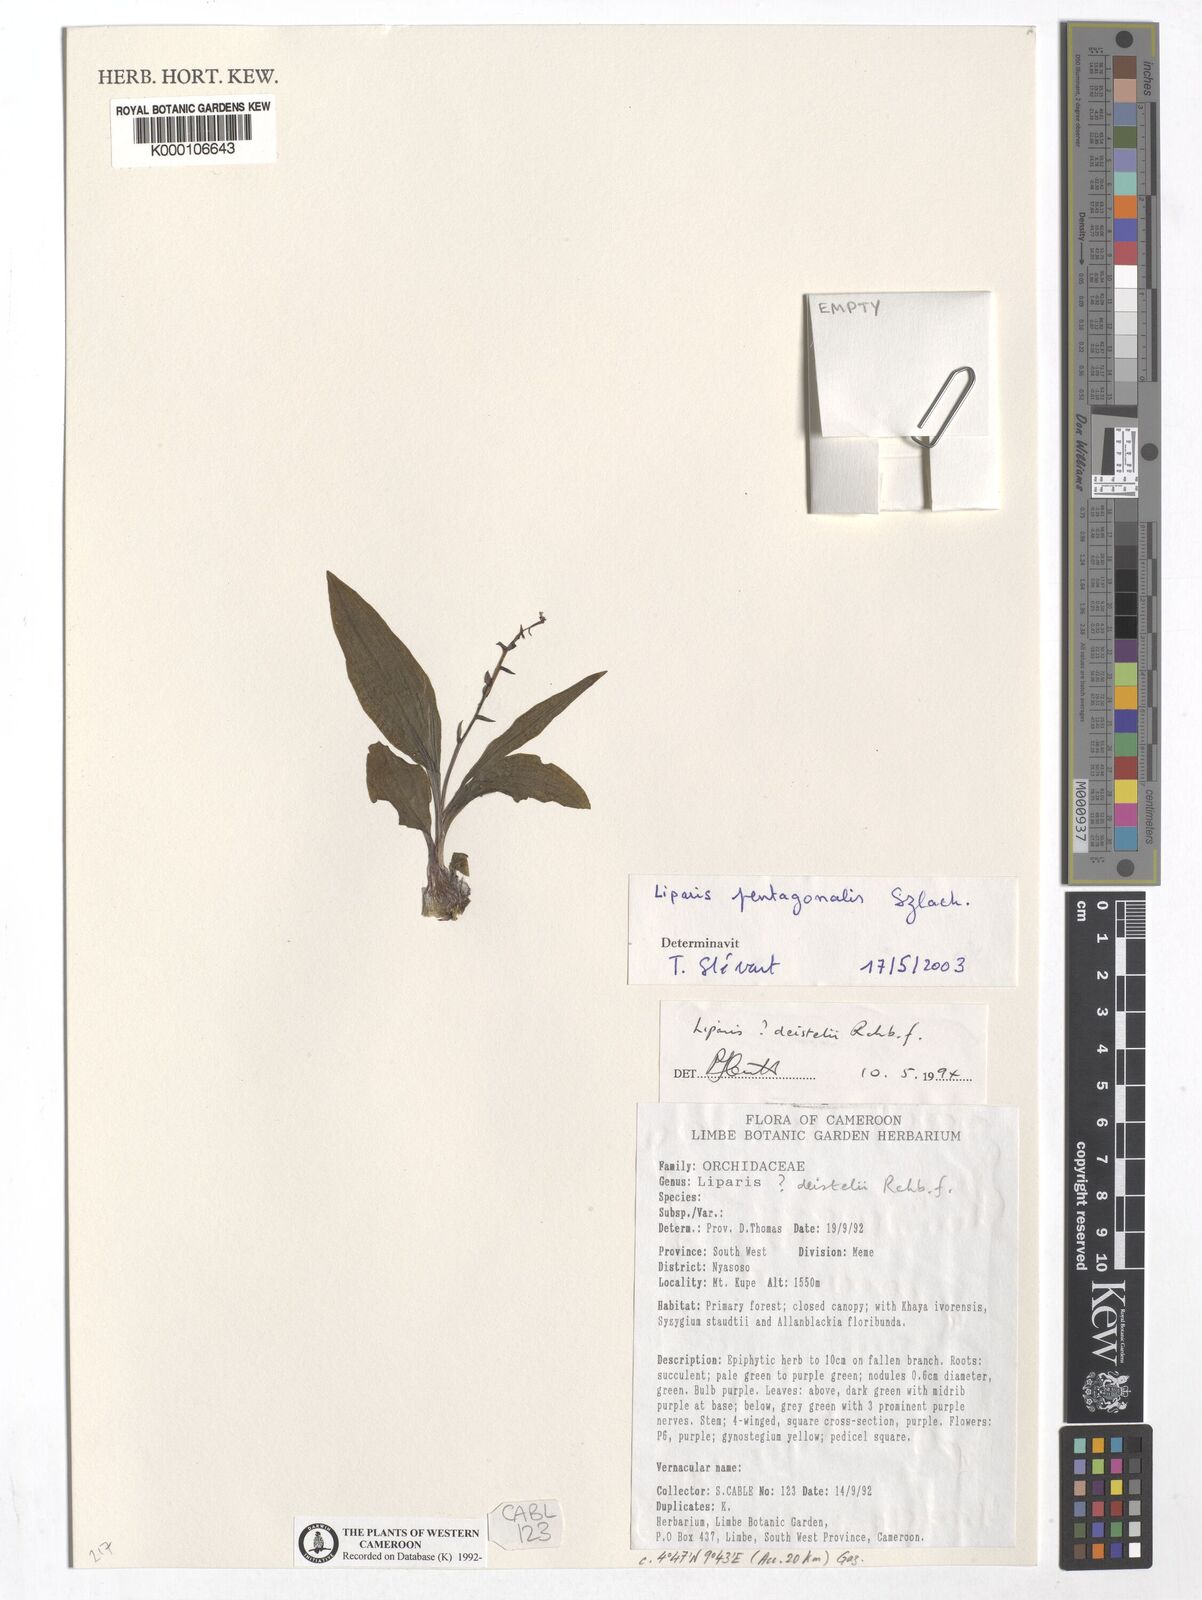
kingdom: Plantae
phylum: Tracheophyta
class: Liliopsida
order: Asparagales
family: Orchidaceae
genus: Liparis
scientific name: Liparis suborbicularis
